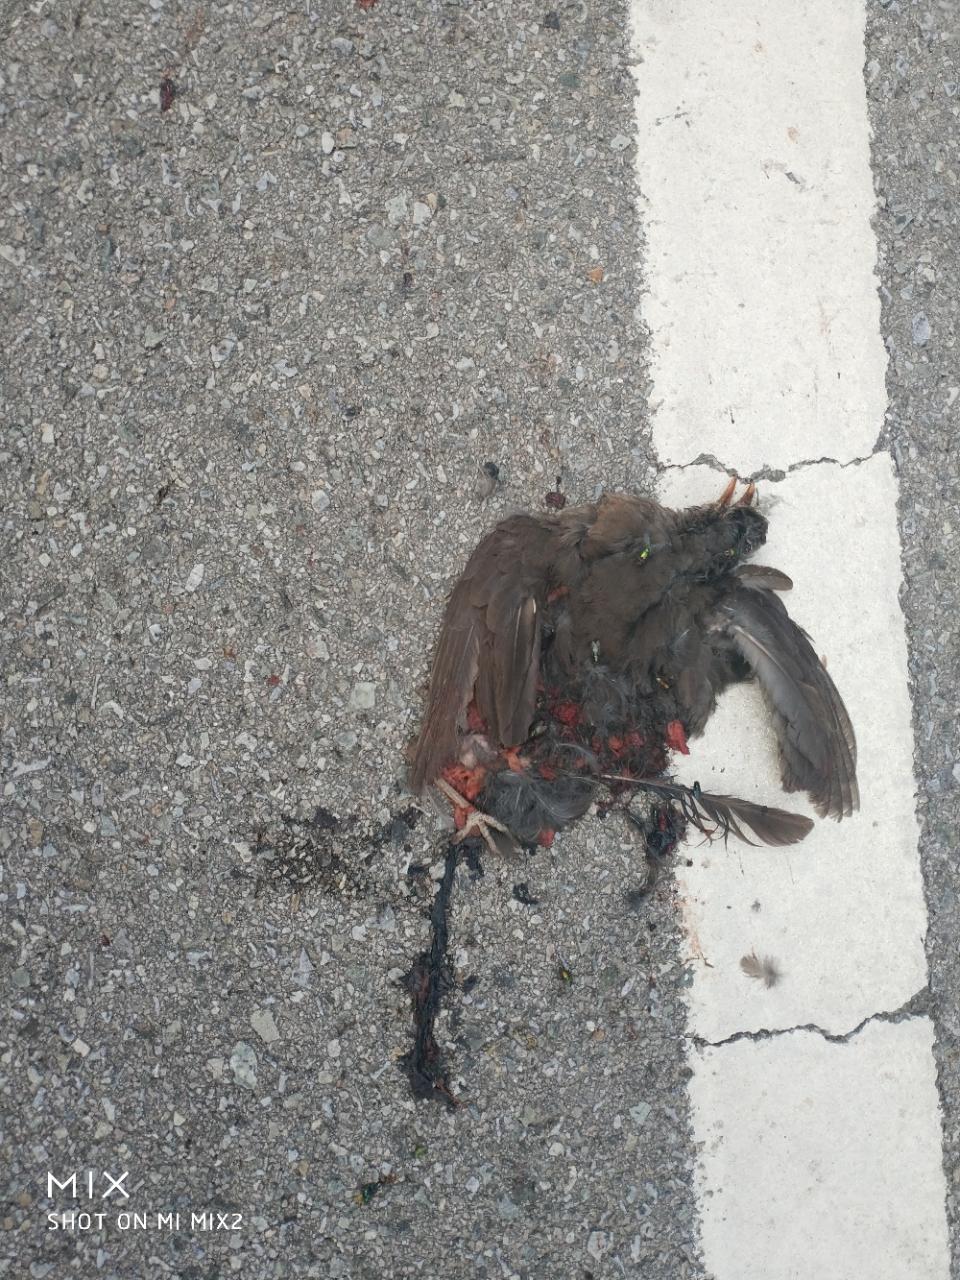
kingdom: Animalia
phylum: Chordata
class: Aves
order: Passeriformes
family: Turdidae
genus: Turdus
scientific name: Turdus merula
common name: Common blackbird
